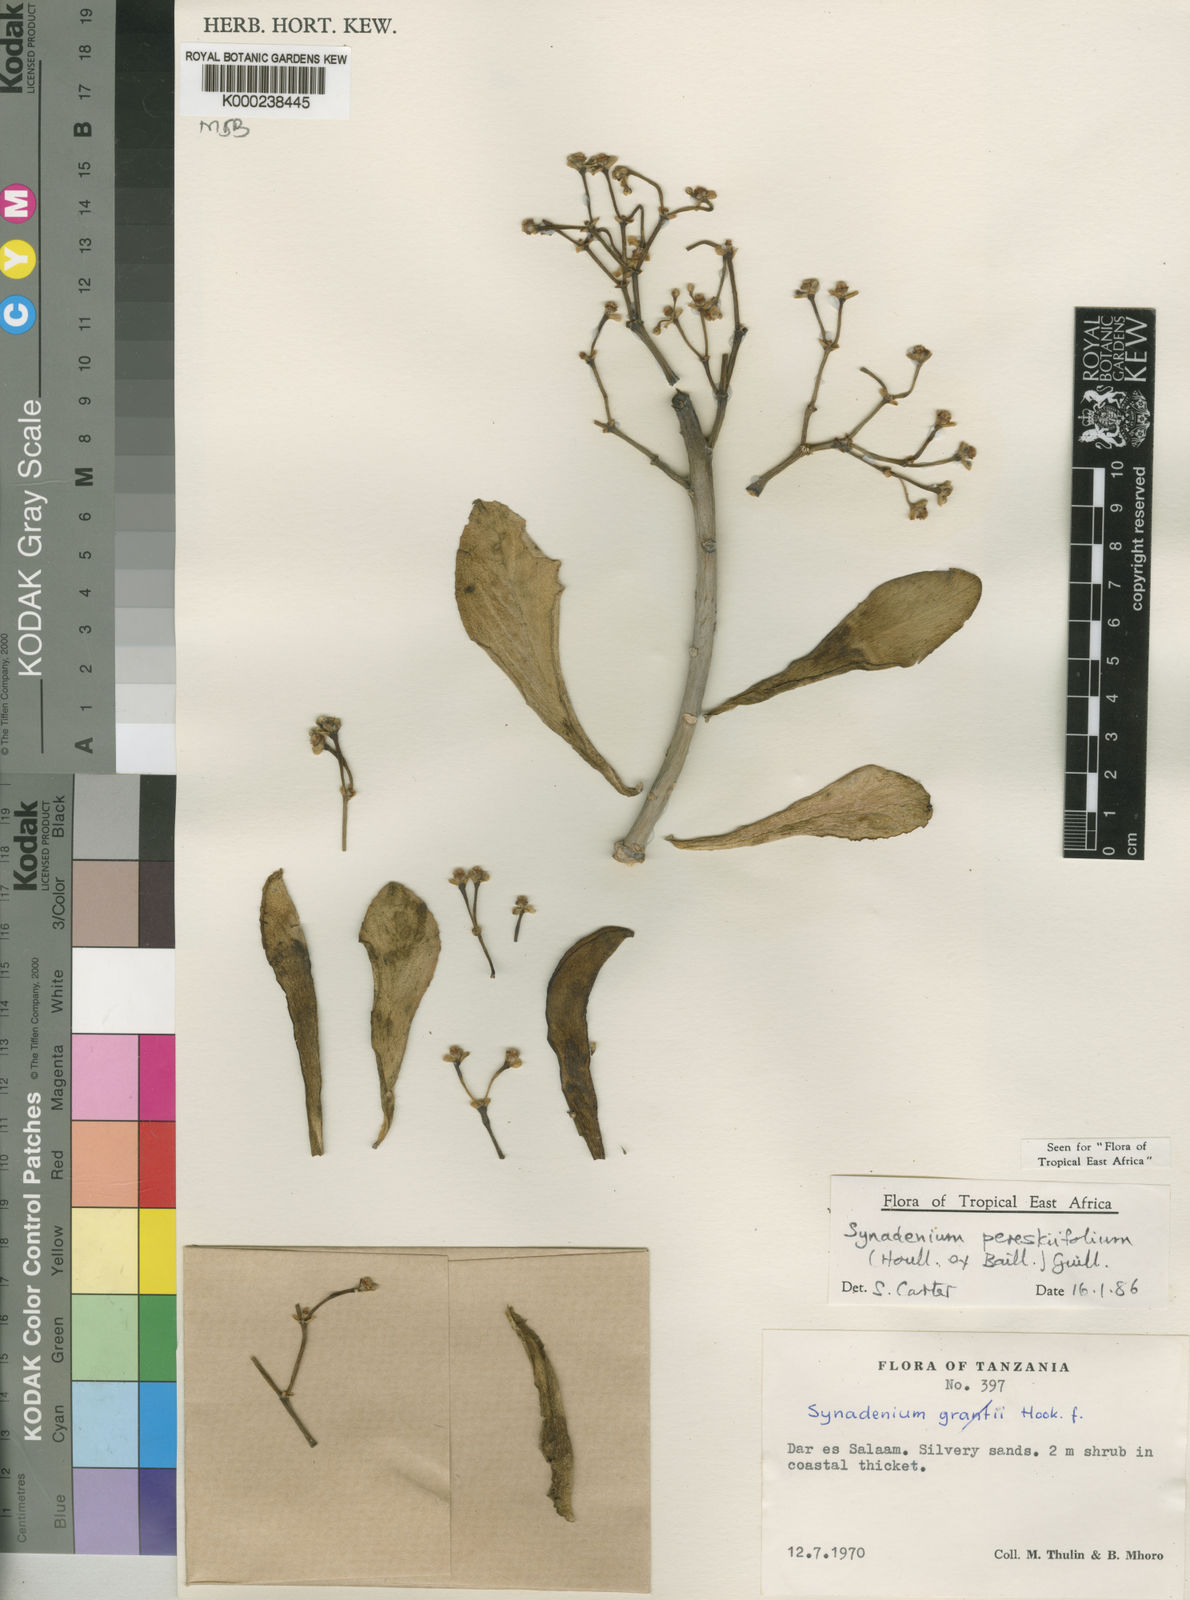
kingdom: Plantae
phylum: Tracheophyta
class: Magnoliopsida
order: Malpighiales
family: Euphorbiaceae
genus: Euphorbia
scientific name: Euphorbia pereskiifolia
